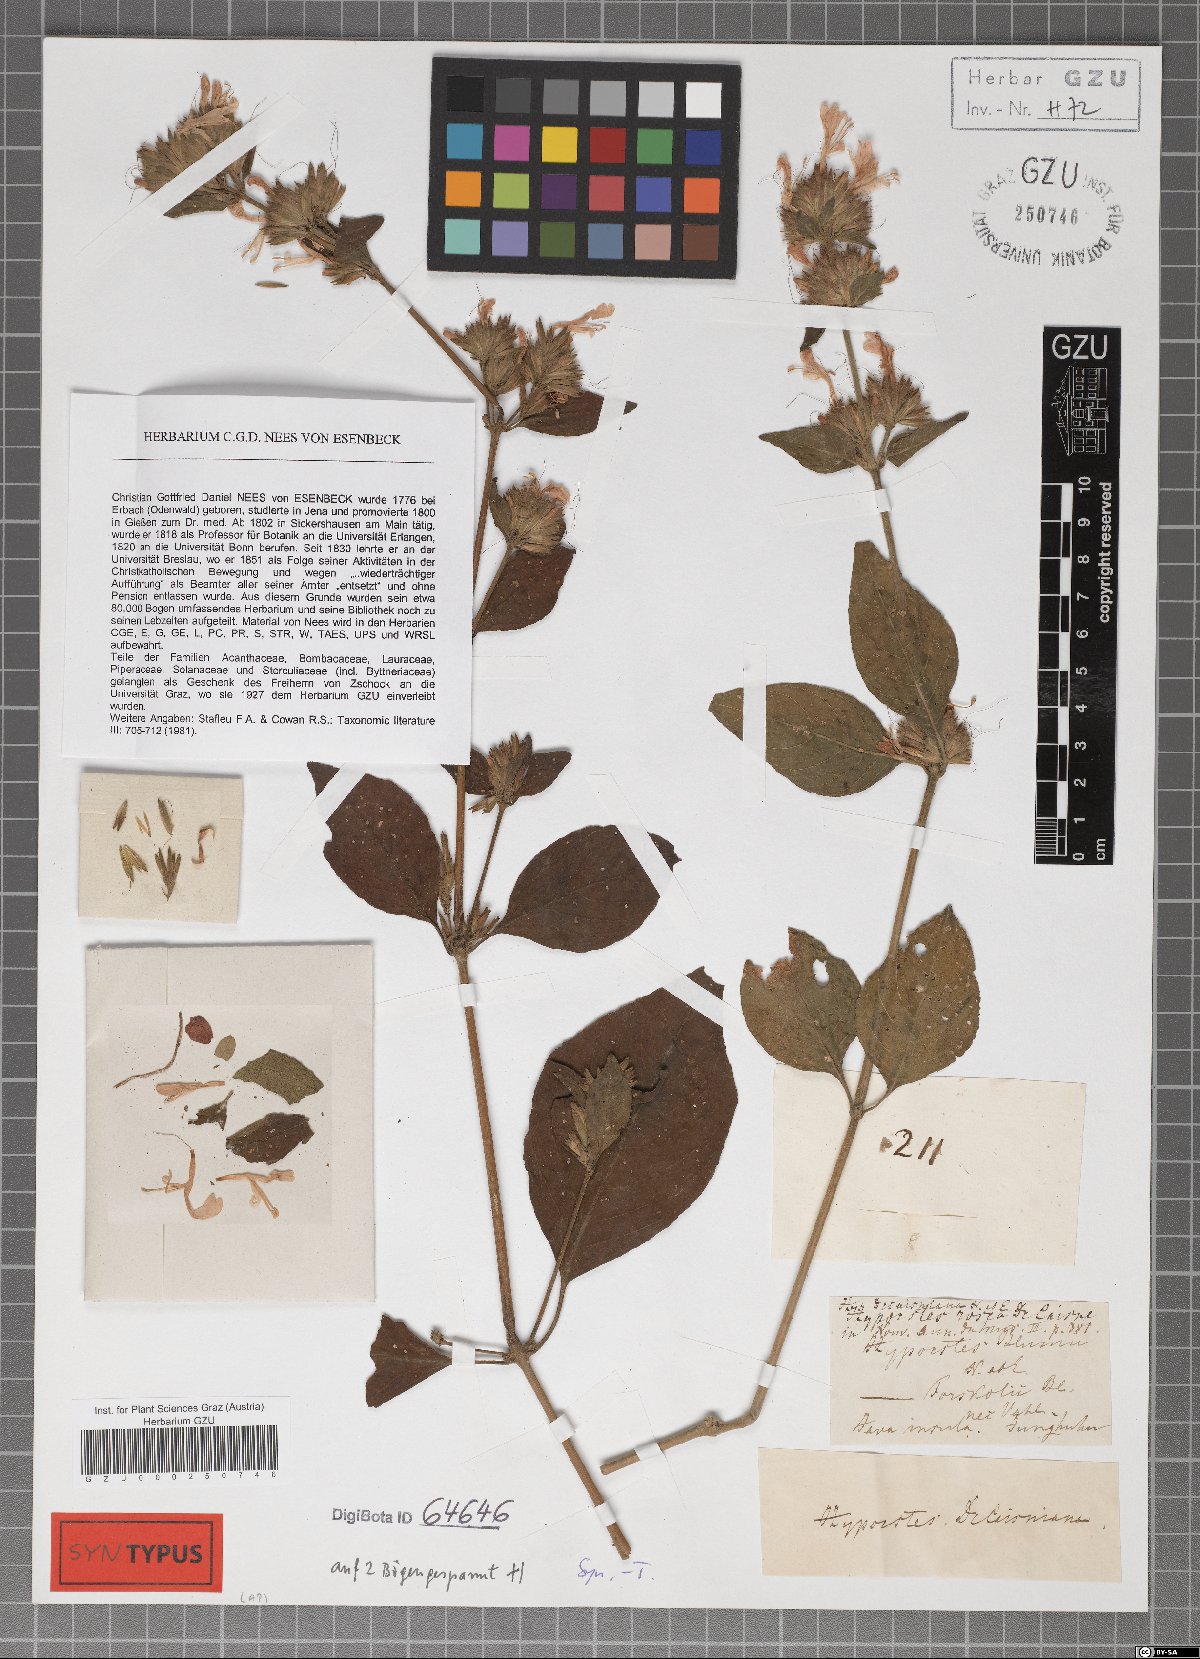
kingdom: Plantae
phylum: Tracheophyta
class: Magnoliopsida
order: Lamiales
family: Acanthaceae
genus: Hypoestes
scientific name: Hypoestes decaisneana
